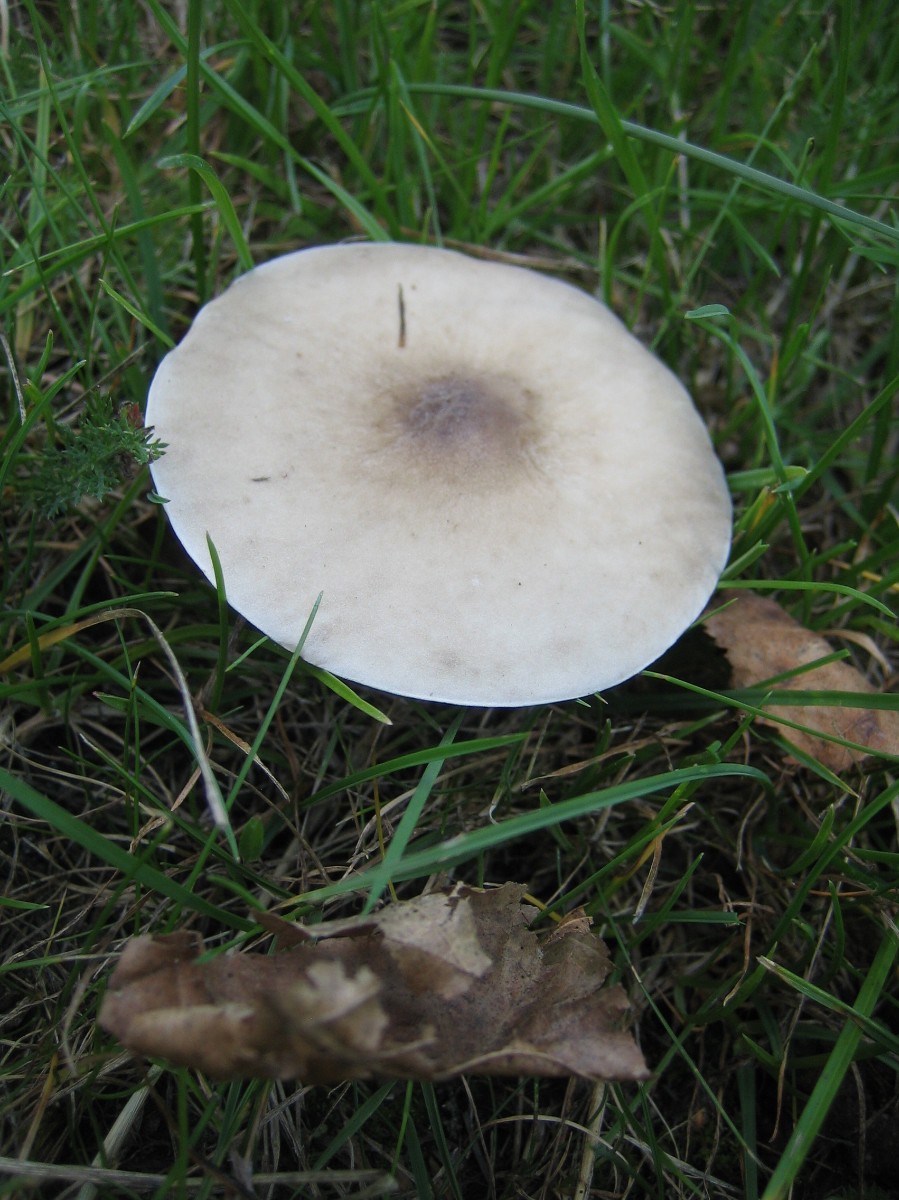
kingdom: Fungi
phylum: Basidiomycota
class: Agaricomycetes
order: Agaricales
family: Tricholomataceae
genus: Melanoleuca
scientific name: Melanoleuca
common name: munkehat
